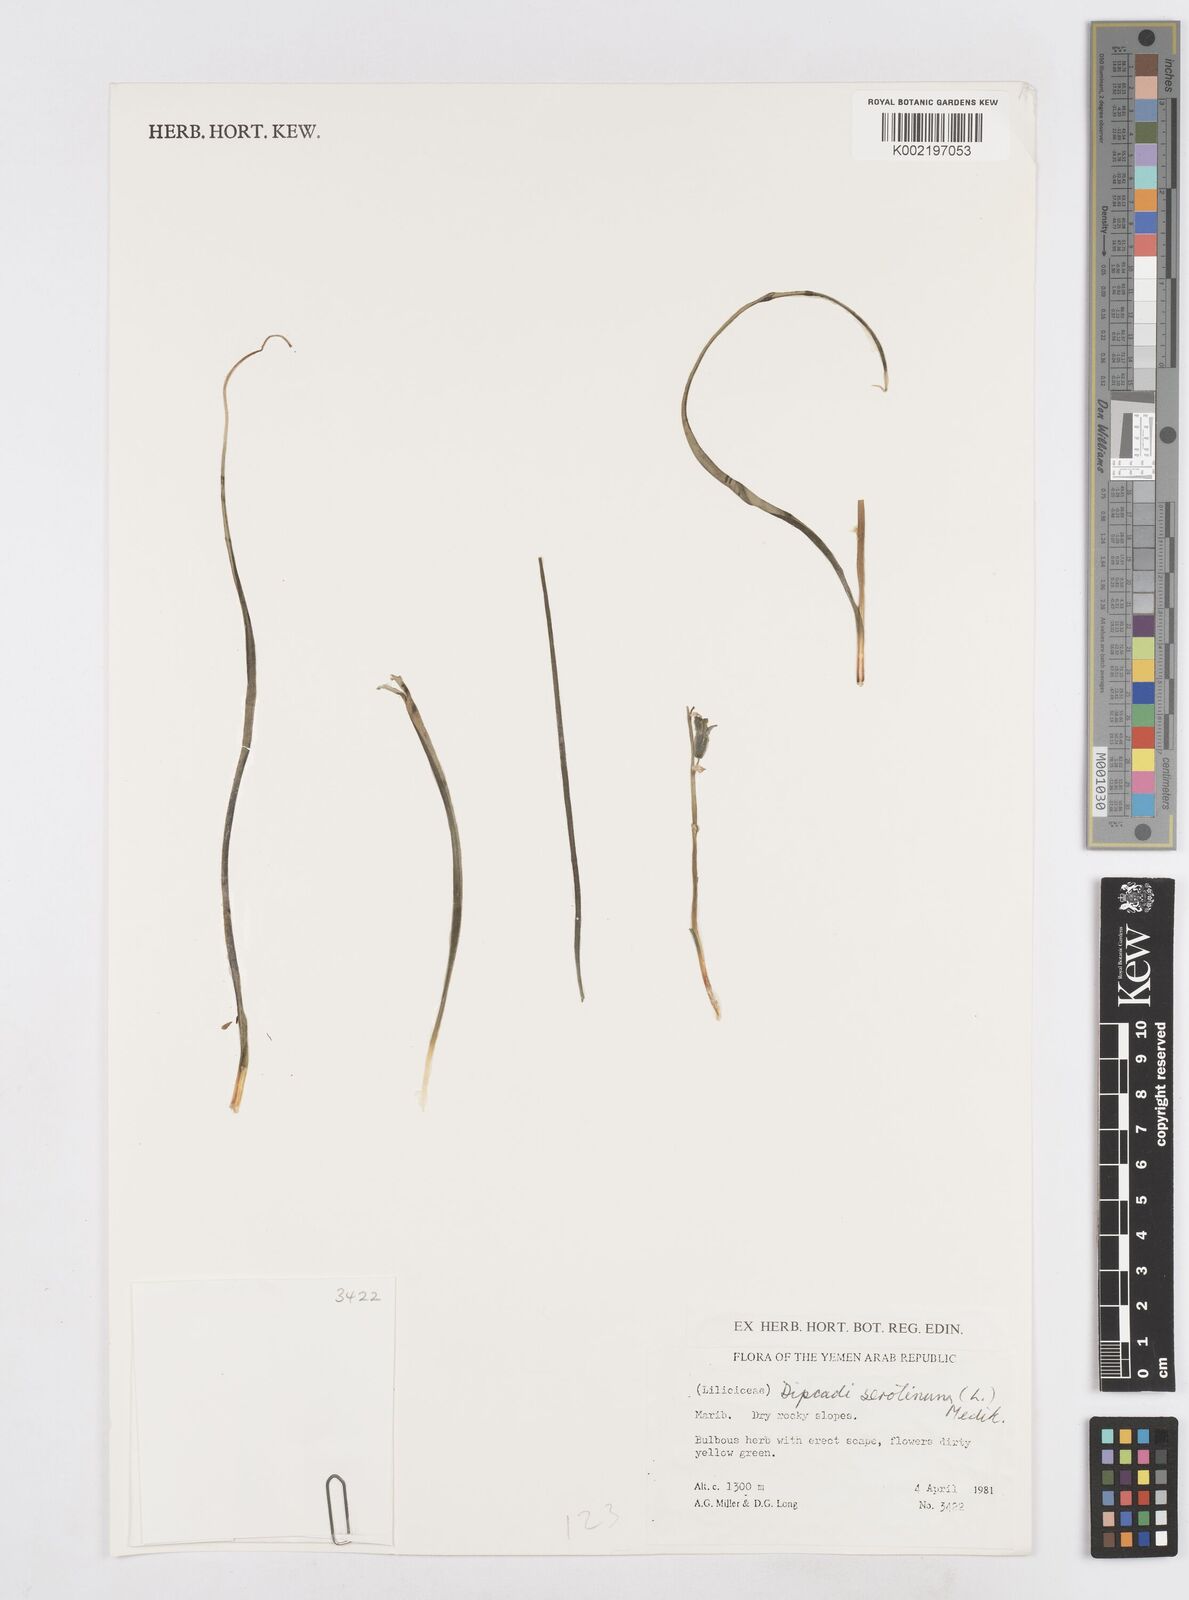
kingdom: Plantae
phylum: Tracheophyta
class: Liliopsida
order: Asparagales
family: Asparagaceae
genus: Dipcadi
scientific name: Dipcadi serotinum
